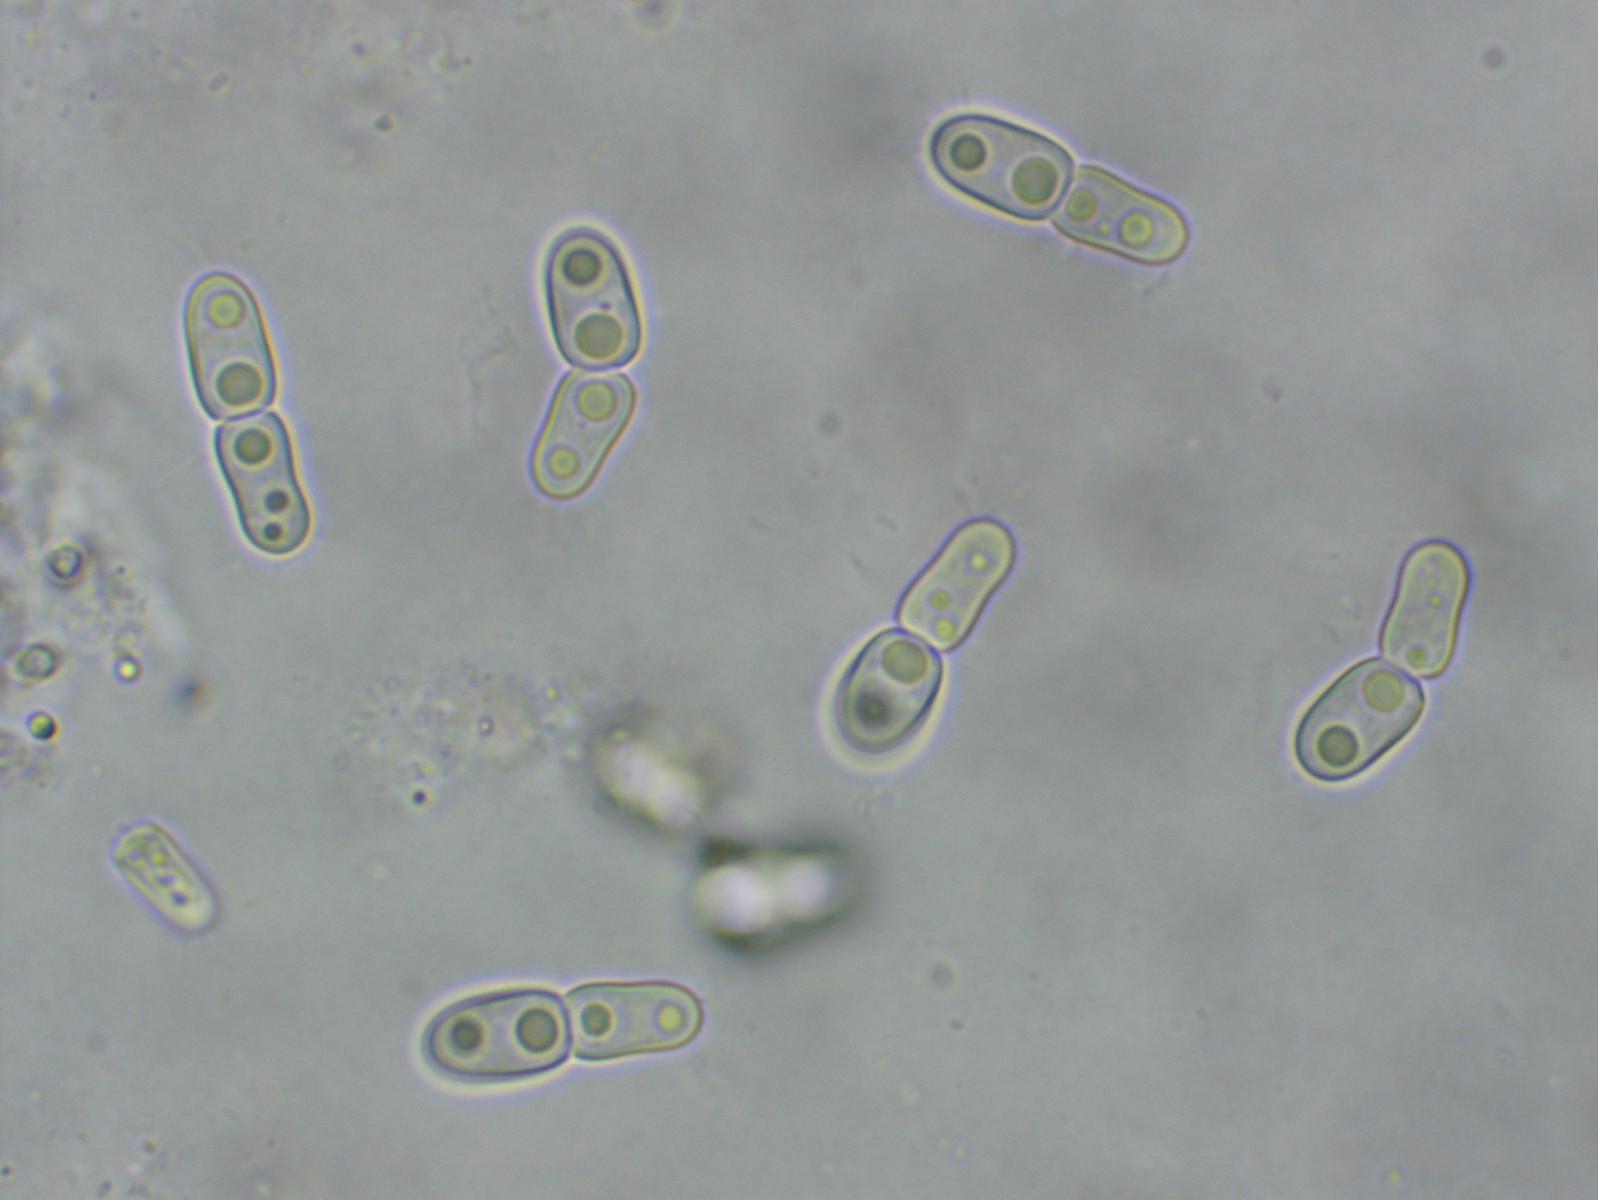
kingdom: Fungi
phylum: Ascomycota
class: Dothideomycetes
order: Microthyriales
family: Micropeltidaceae
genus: Stomiopeltis
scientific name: Stomiopeltis
